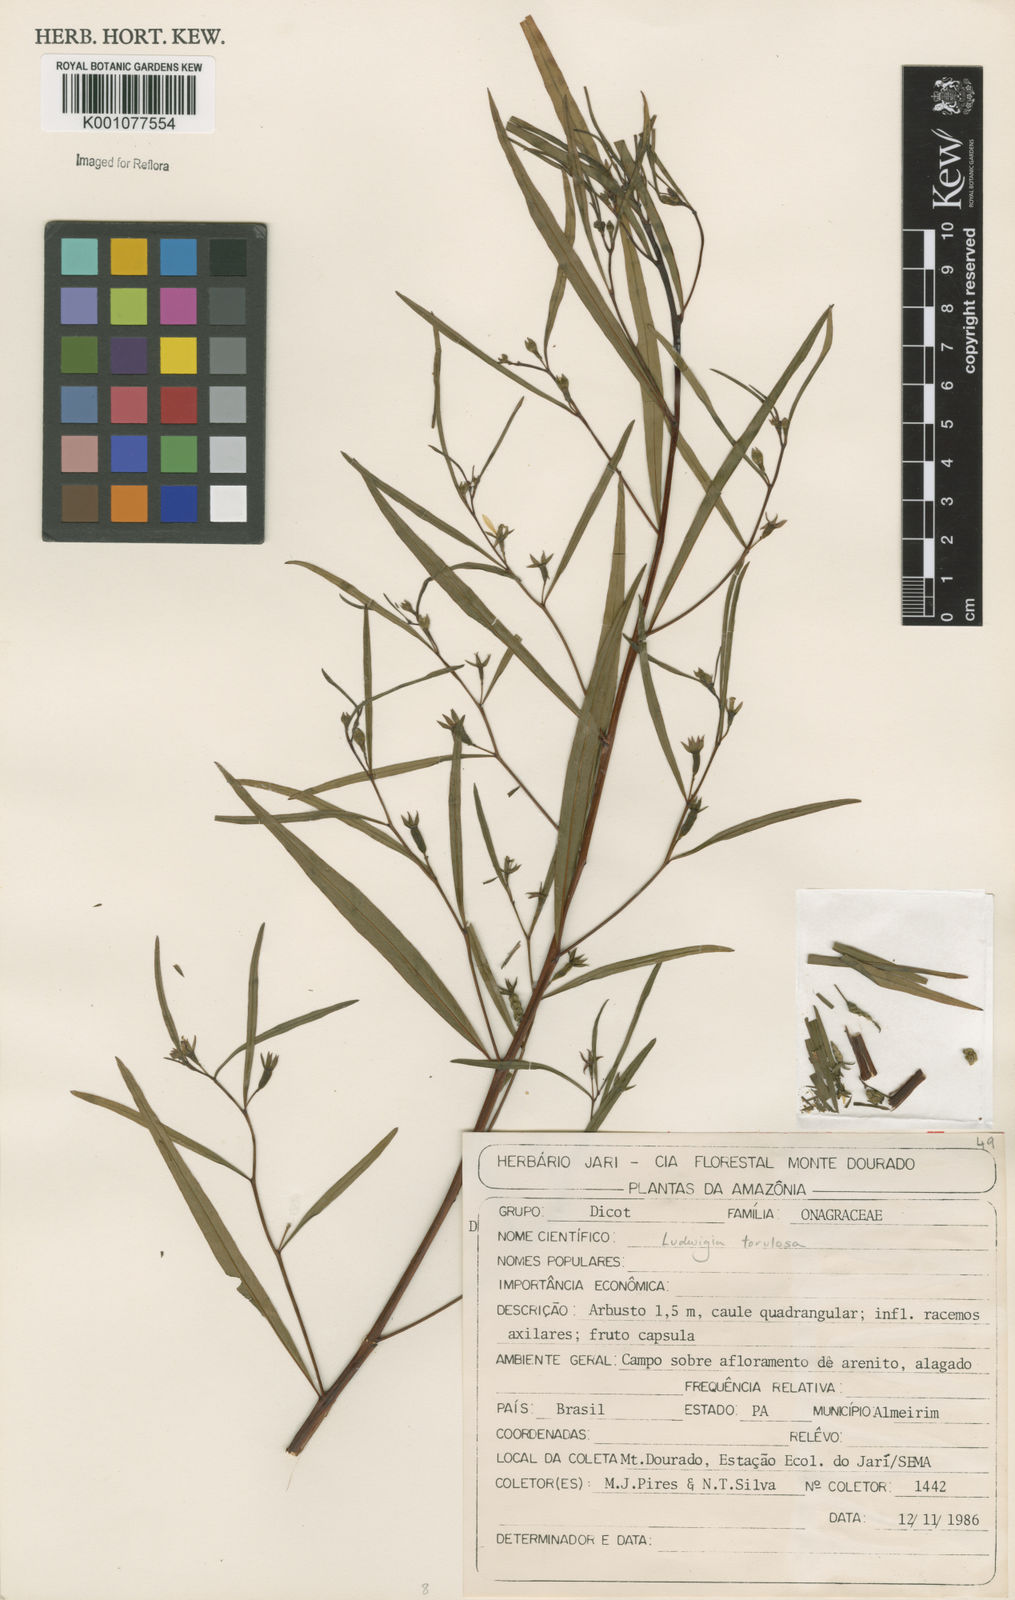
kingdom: Plantae
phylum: Tracheophyta
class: Magnoliopsida
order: Myrtales
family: Onagraceae
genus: Ludwigia
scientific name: Ludwigia torulosa
